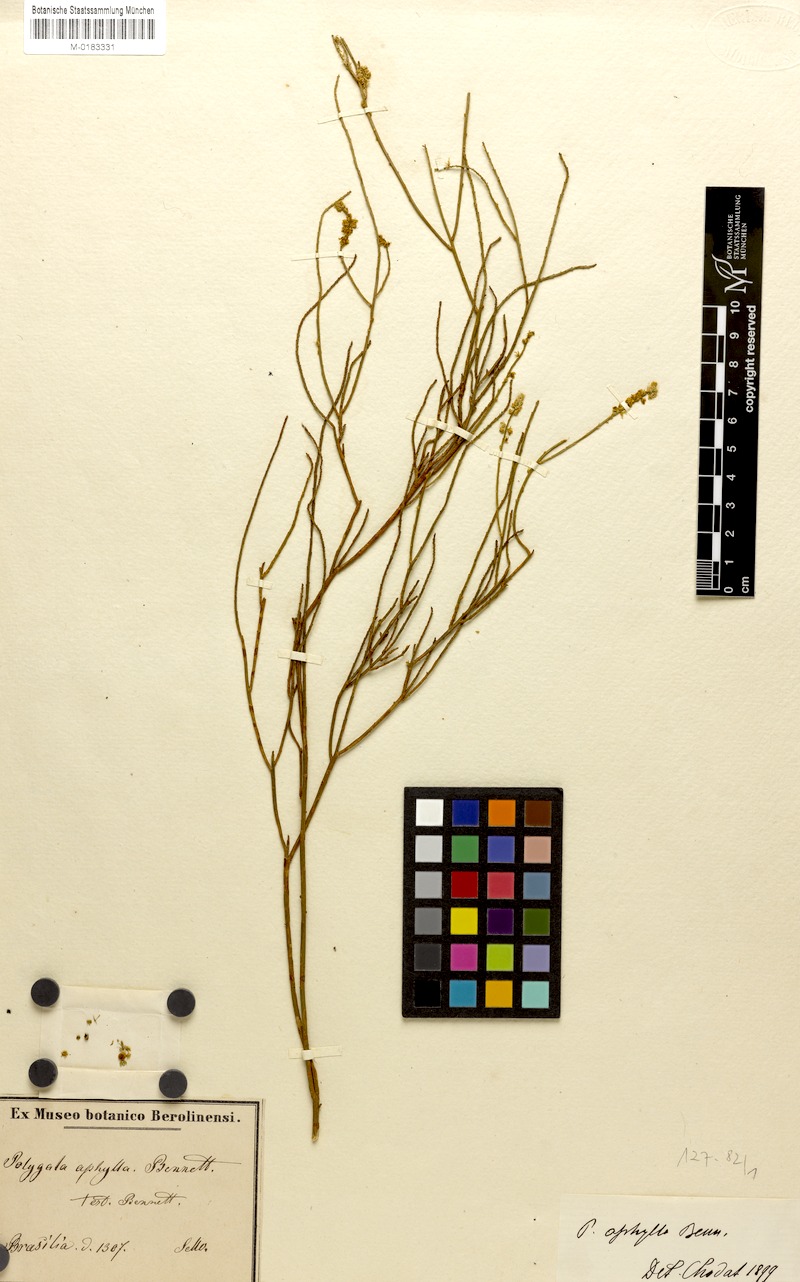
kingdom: Plantae
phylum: Tracheophyta
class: Magnoliopsida
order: Fabales
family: Polygalaceae
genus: Polygala
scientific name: Polygala aphylla
